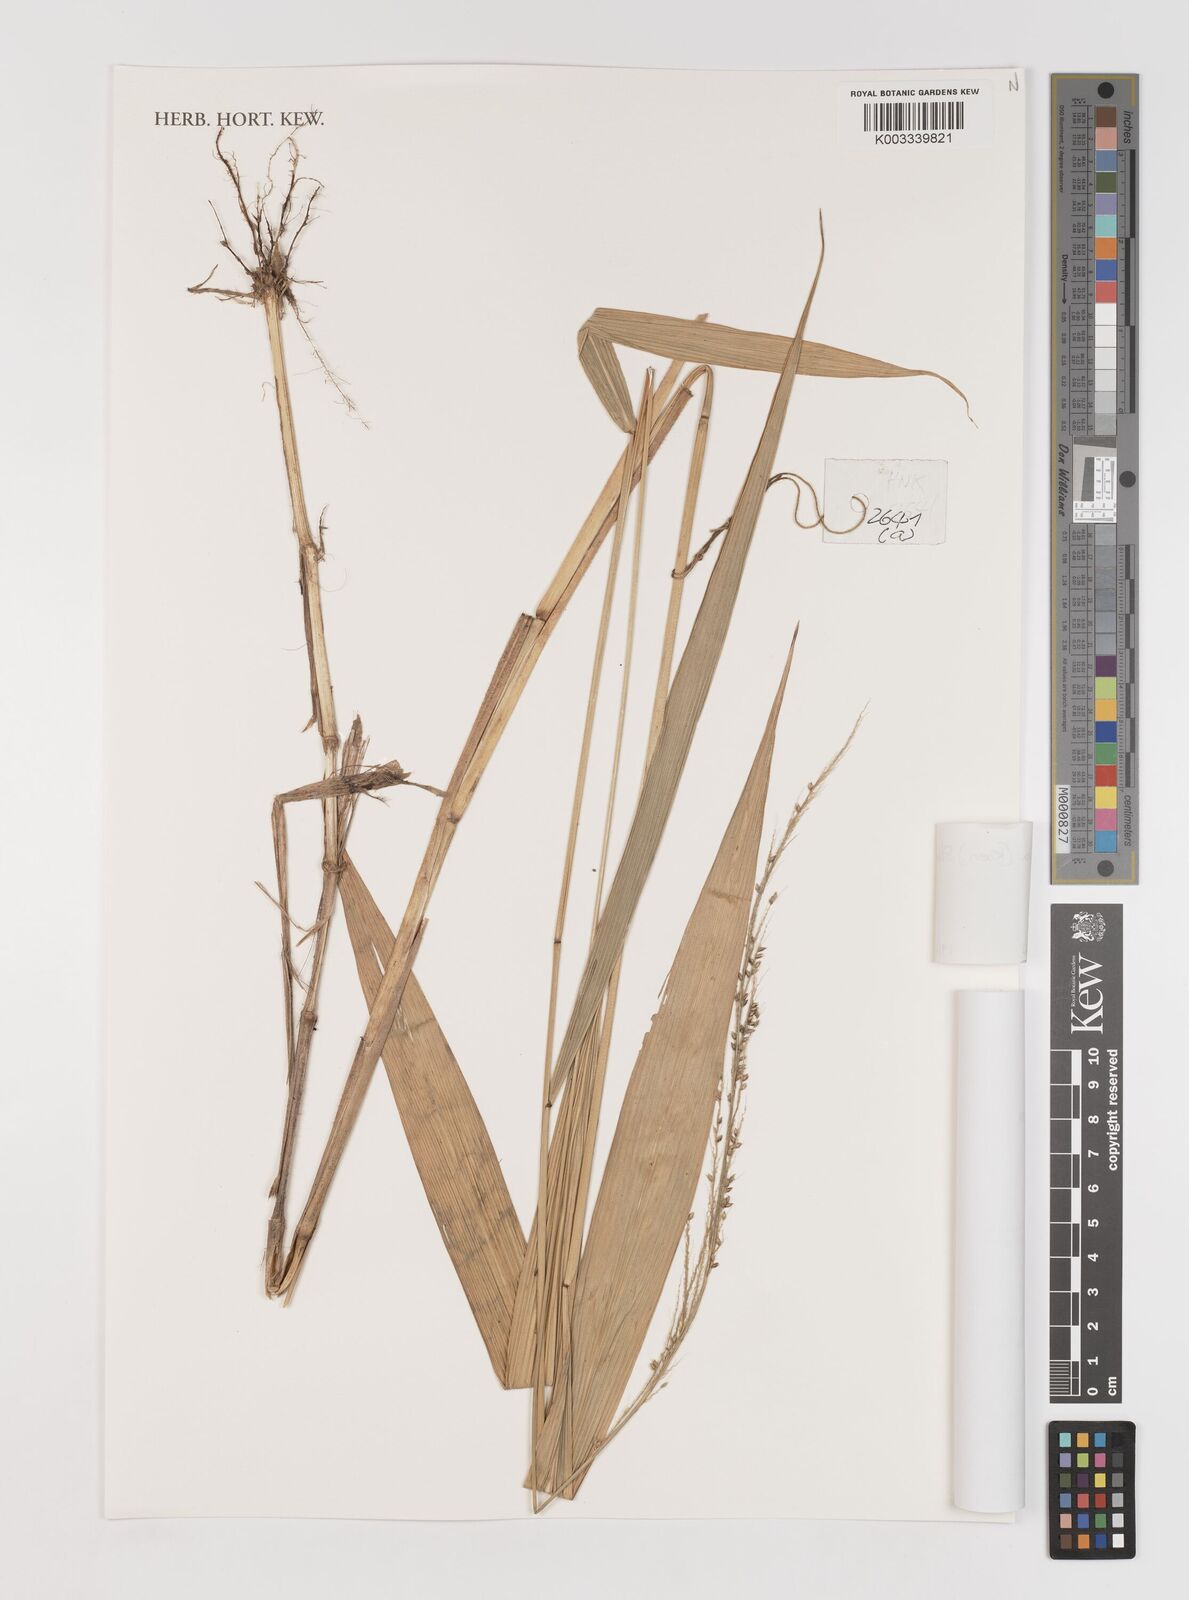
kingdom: Plantae
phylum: Tracheophyta
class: Liliopsida
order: Poales
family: Poaceae
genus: Setaria
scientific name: Setaria palmifolia
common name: Broadleaved bristlegrass
